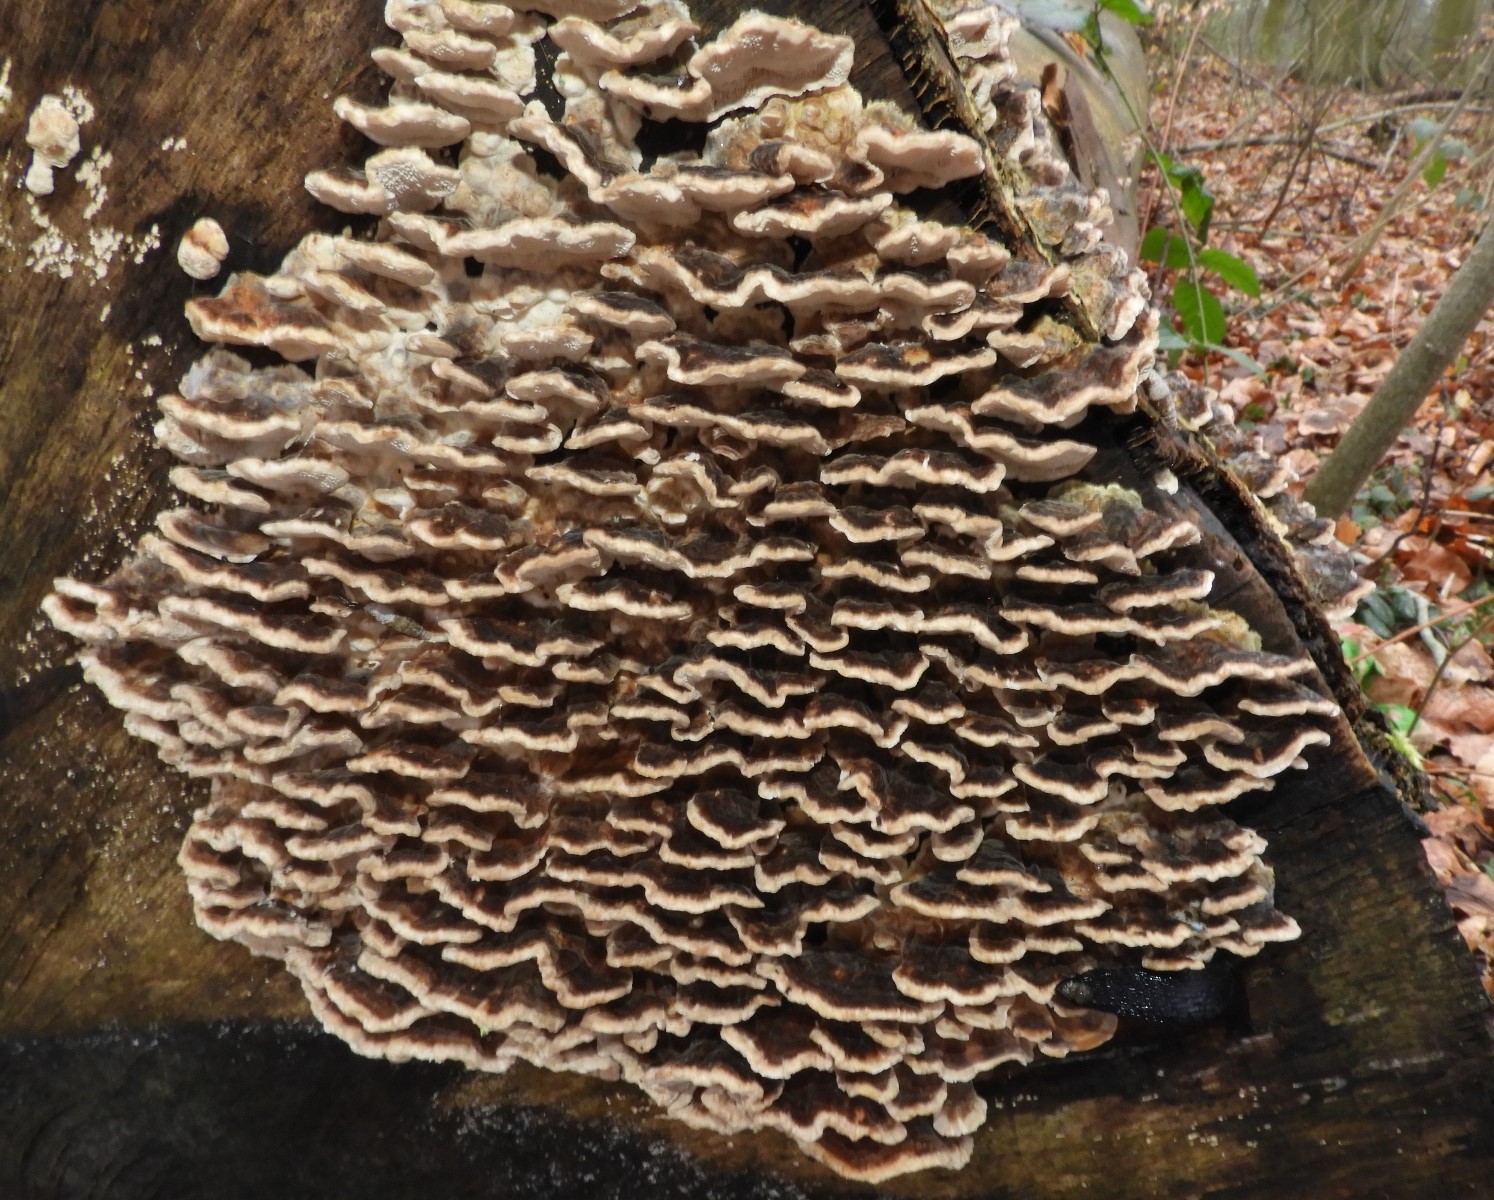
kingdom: Fungi
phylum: Basidiomycota
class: Agaricomycetes
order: Polyporales
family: Polyporaceae
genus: Trametes
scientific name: Trametes versicolor
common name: broget læderporesvamp
